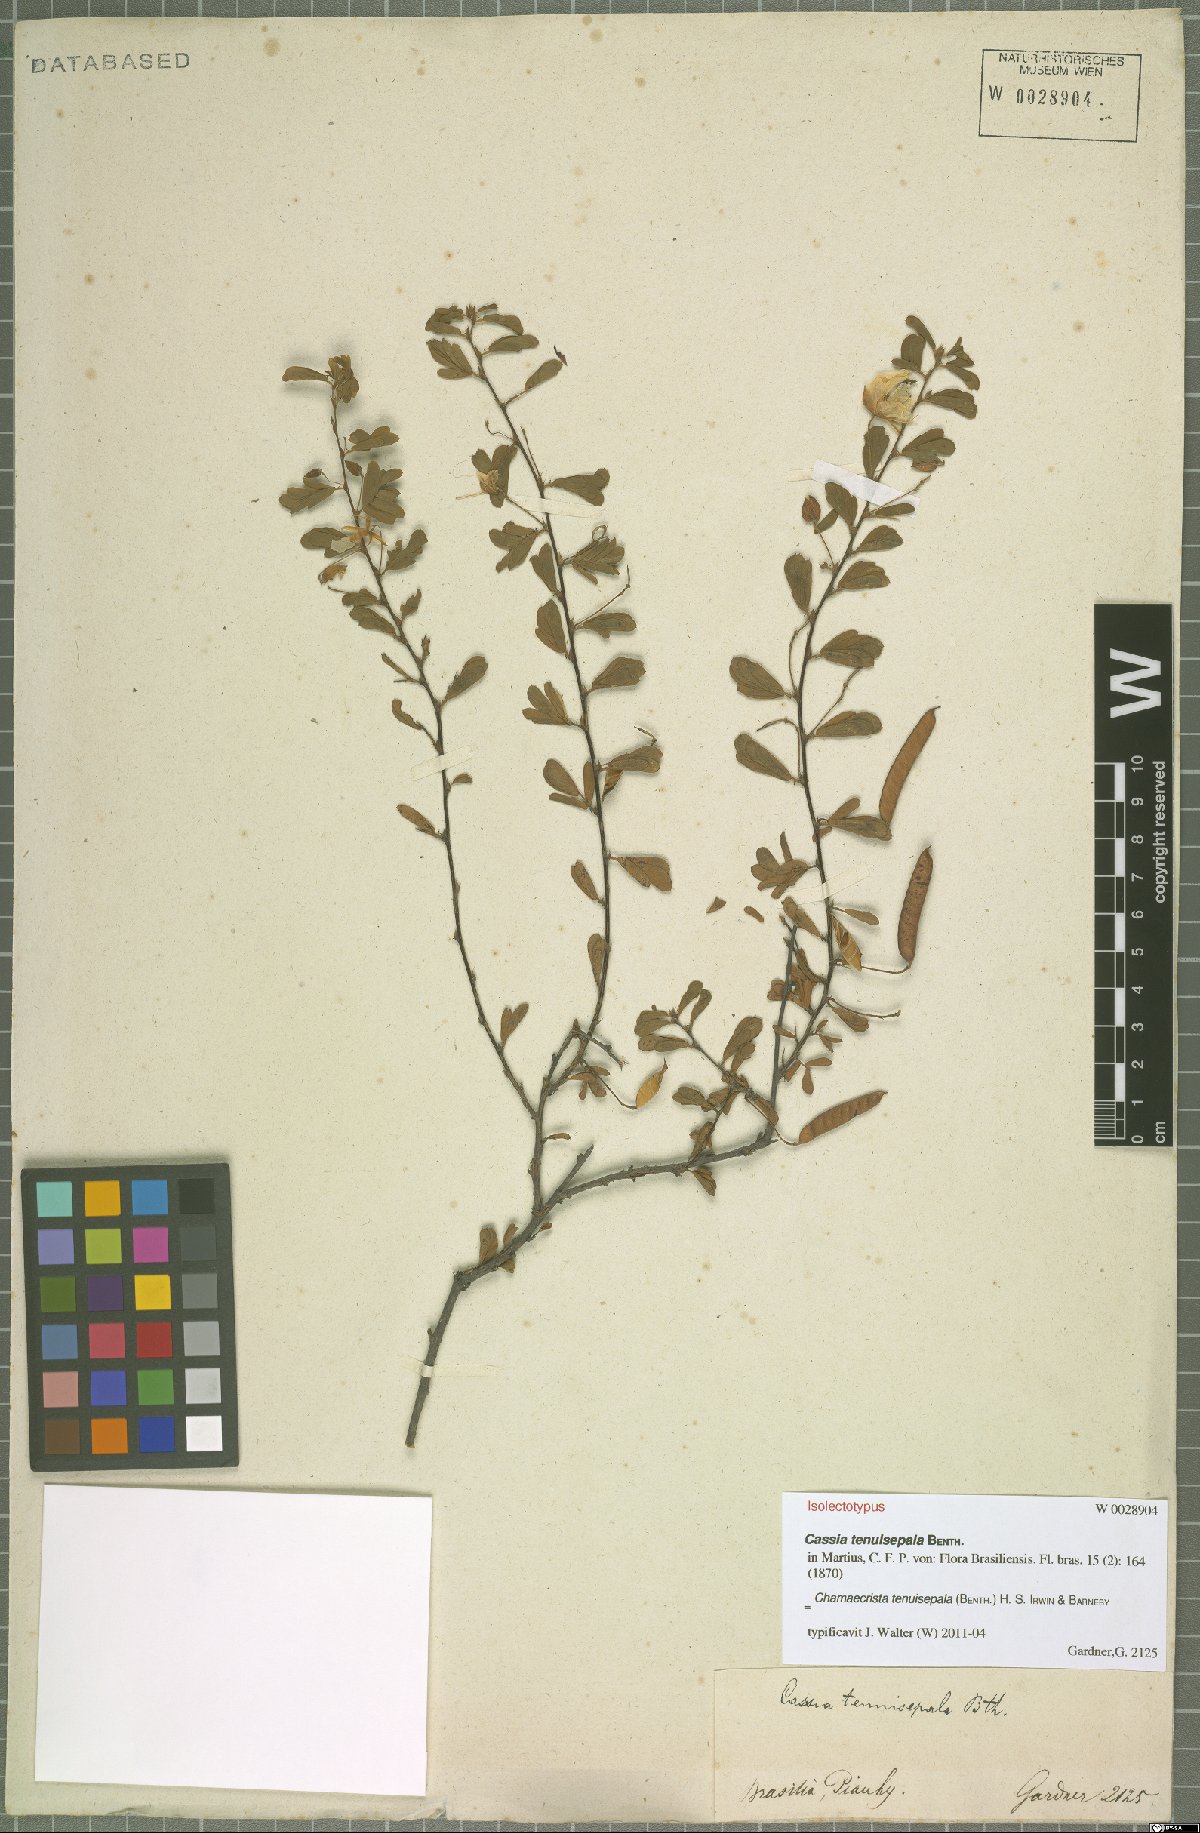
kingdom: Plantae
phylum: Tracheophyta
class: Magnoliopsida
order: Fabales
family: Fabaceae
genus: Chamaecrista
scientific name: Chamaecrista tenuisepala
